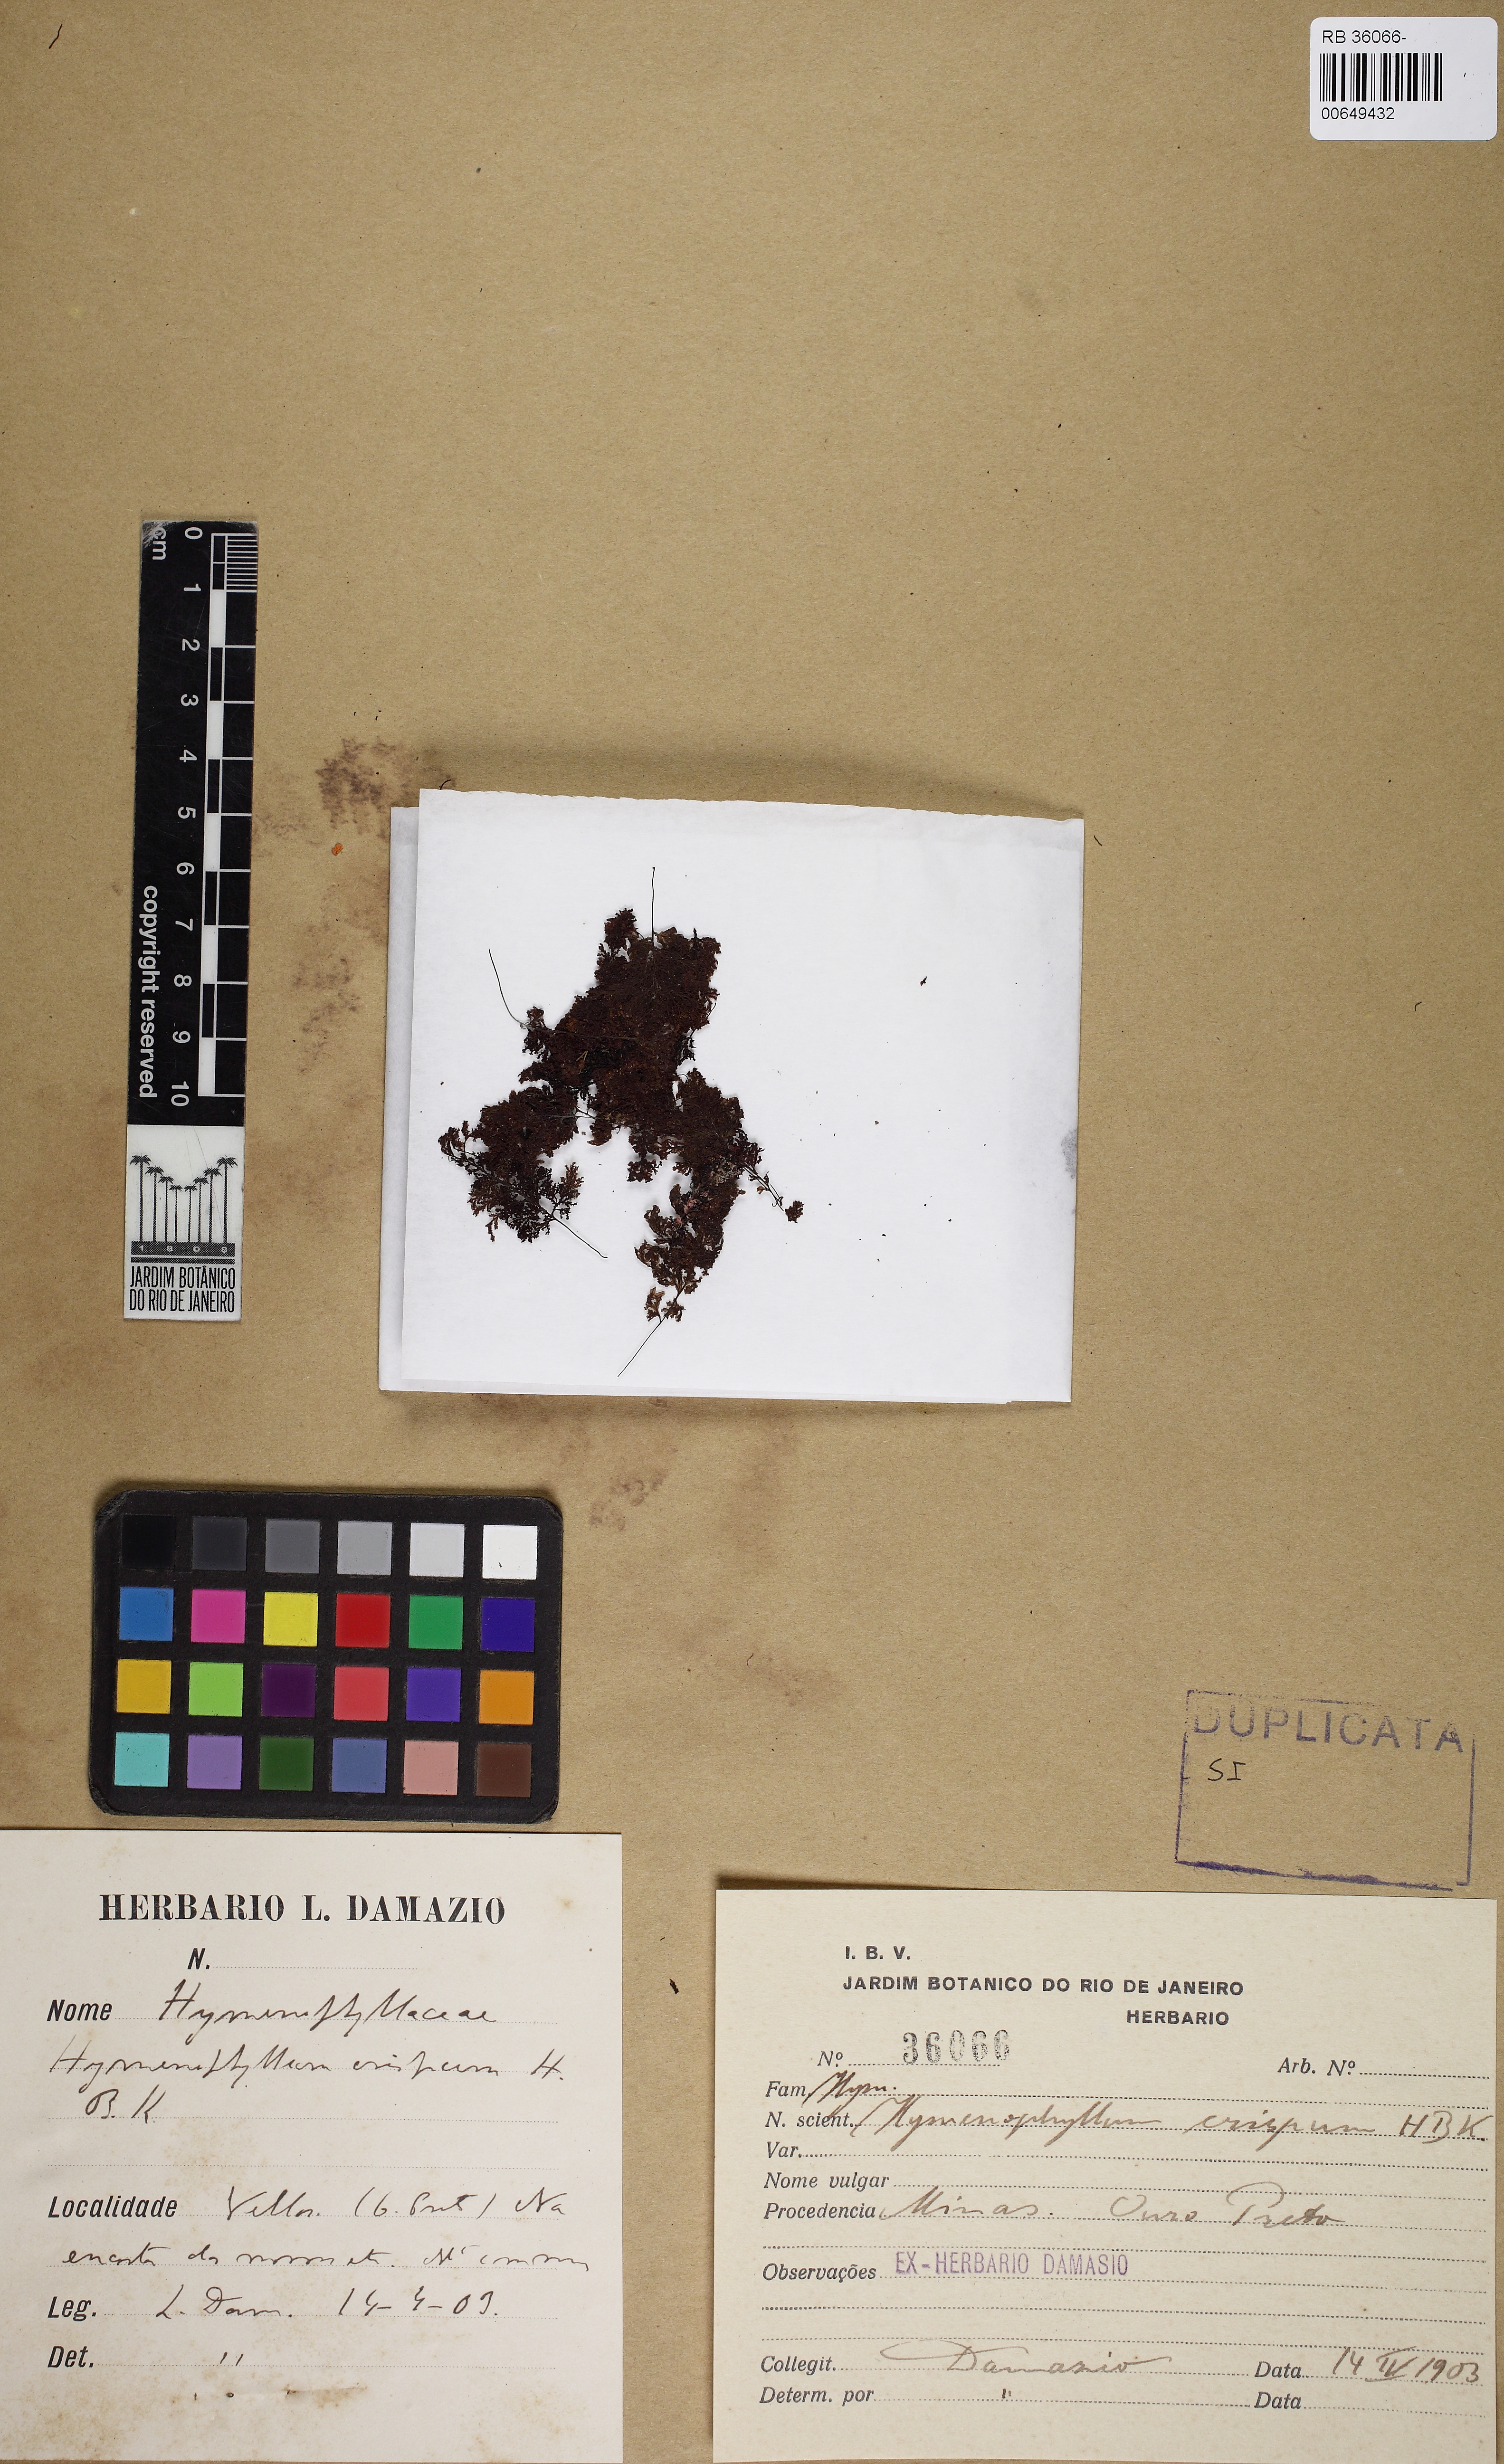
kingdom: Plantae
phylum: Tracheophyta
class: Polypodiopsida
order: Hymenophyllales
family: Hymenophyllaceae
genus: Hymenophyllum
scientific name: Hymenophyllum fendlerianum
